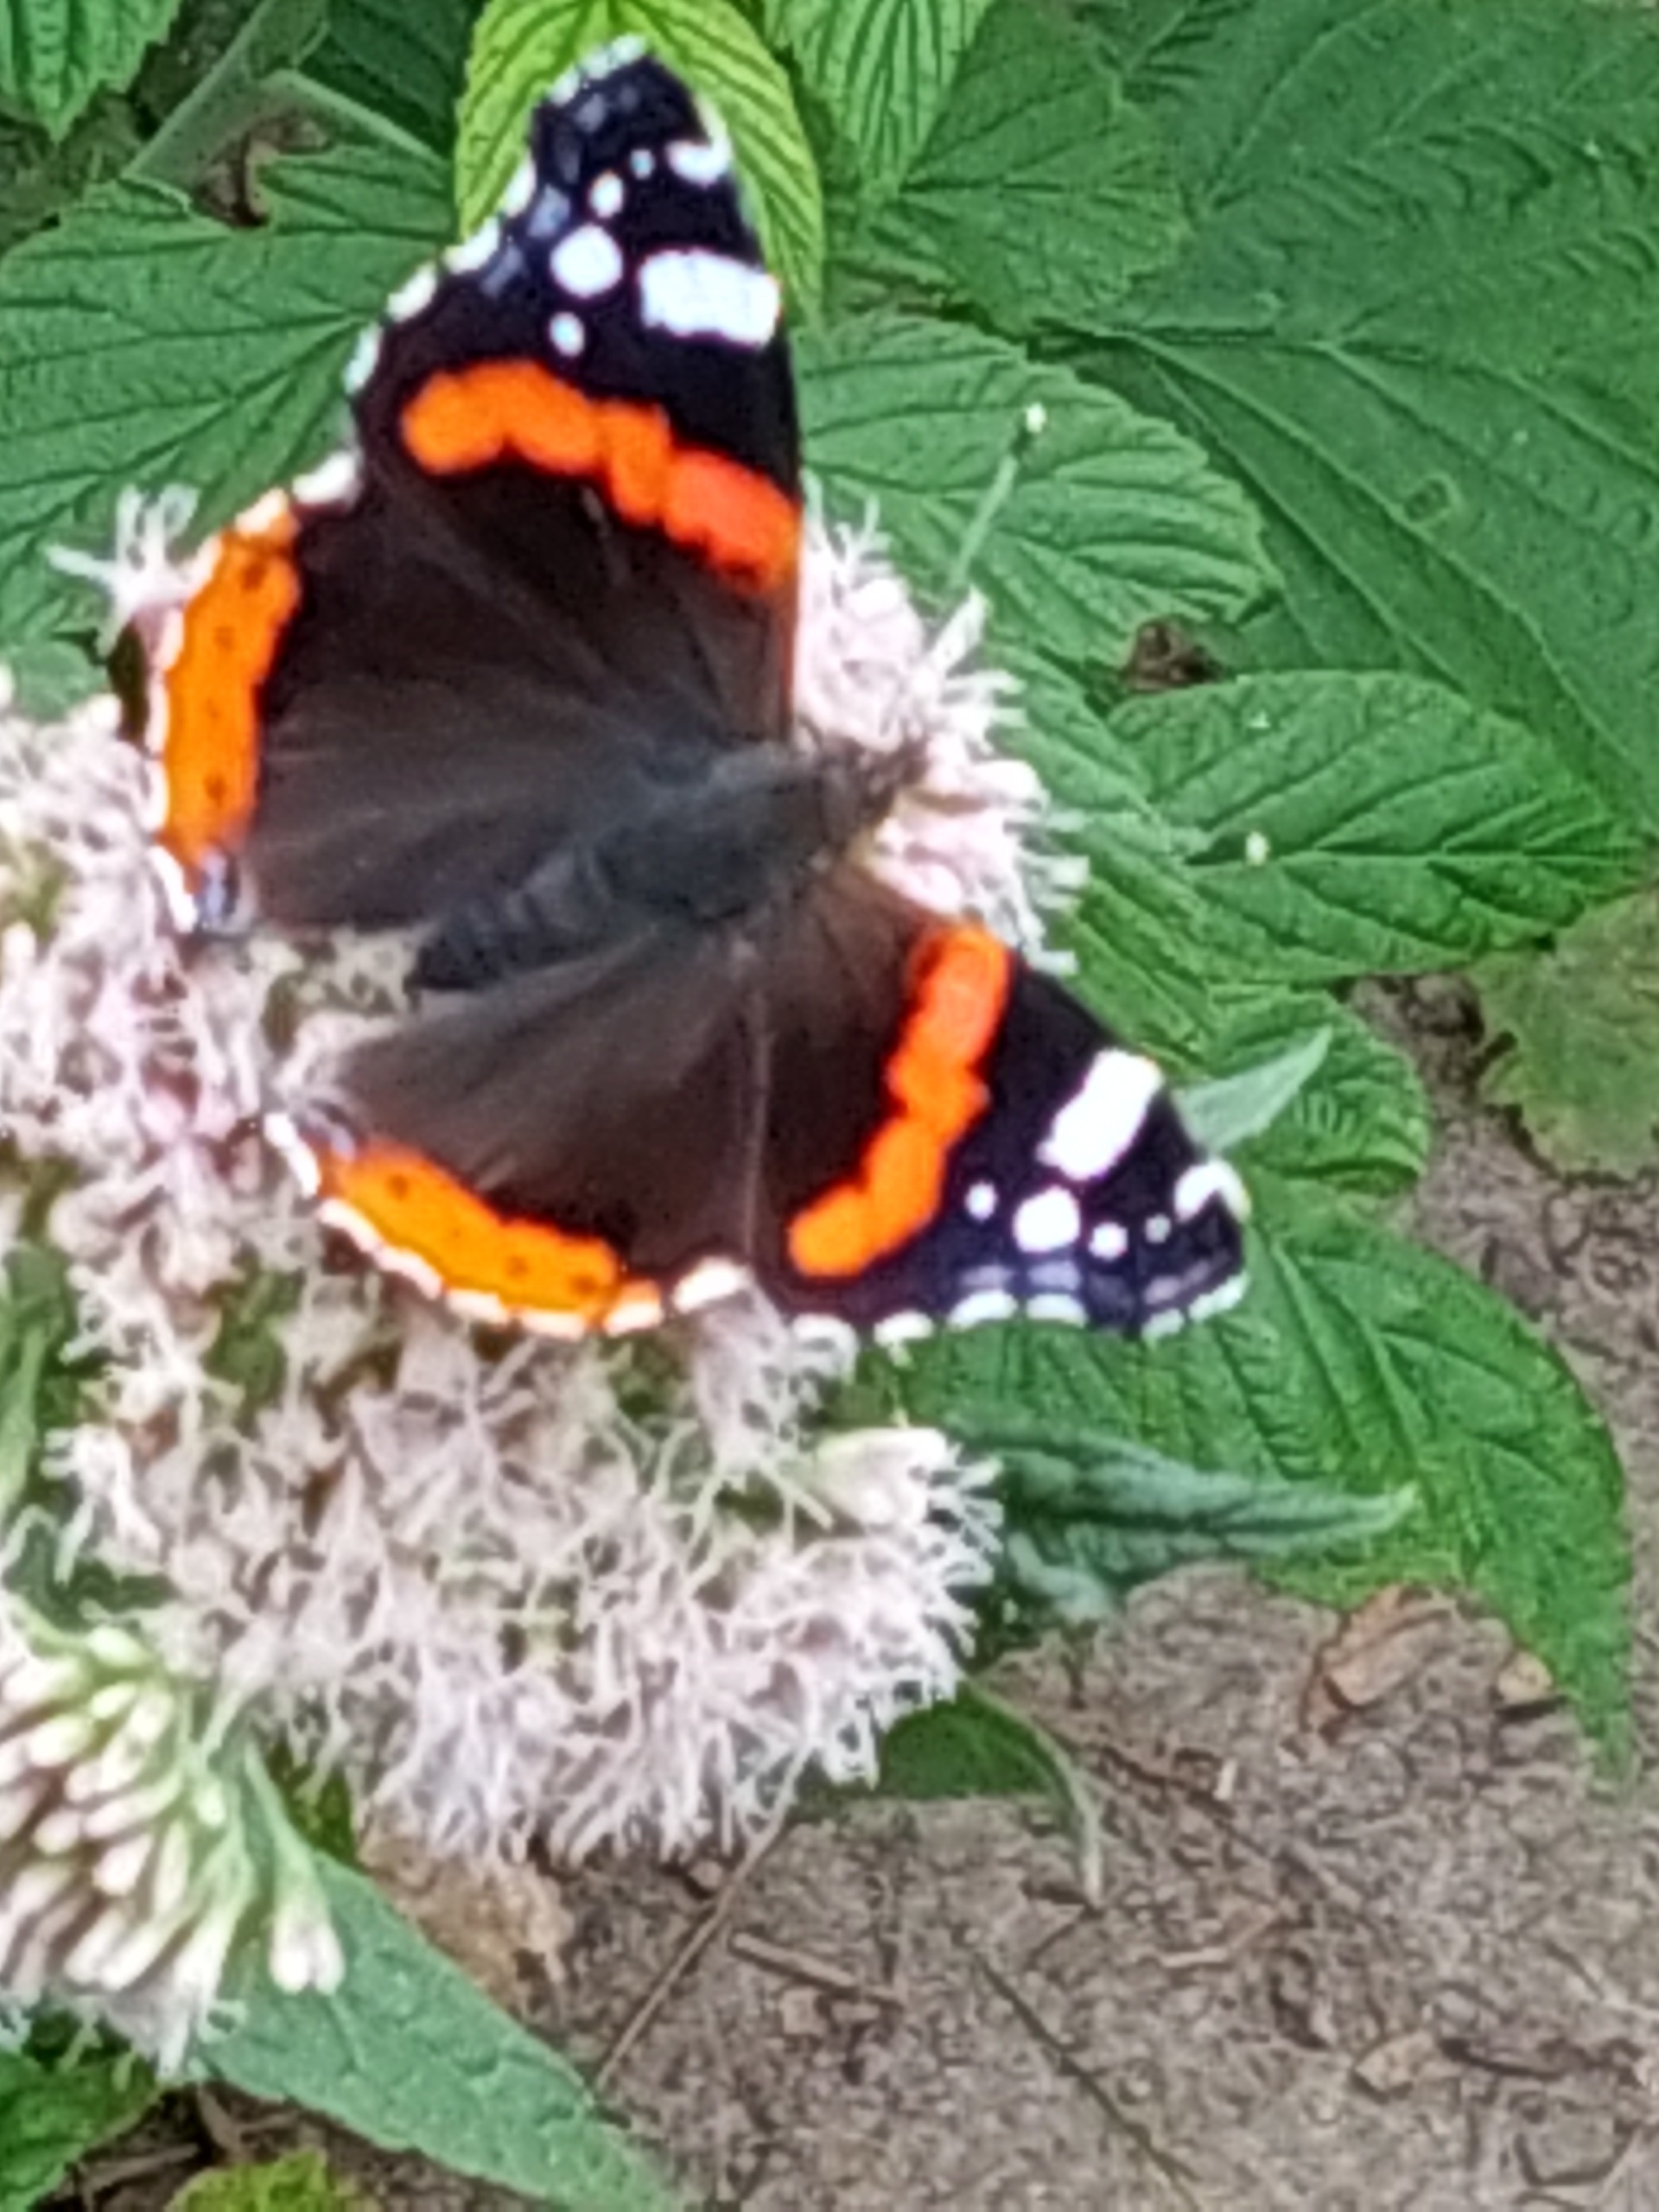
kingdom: Animalia
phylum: Arthropoda
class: Insecta
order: Lepidoptera
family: Nymphalidae
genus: Vanessa
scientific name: Vanessa atalanta
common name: Admiral
